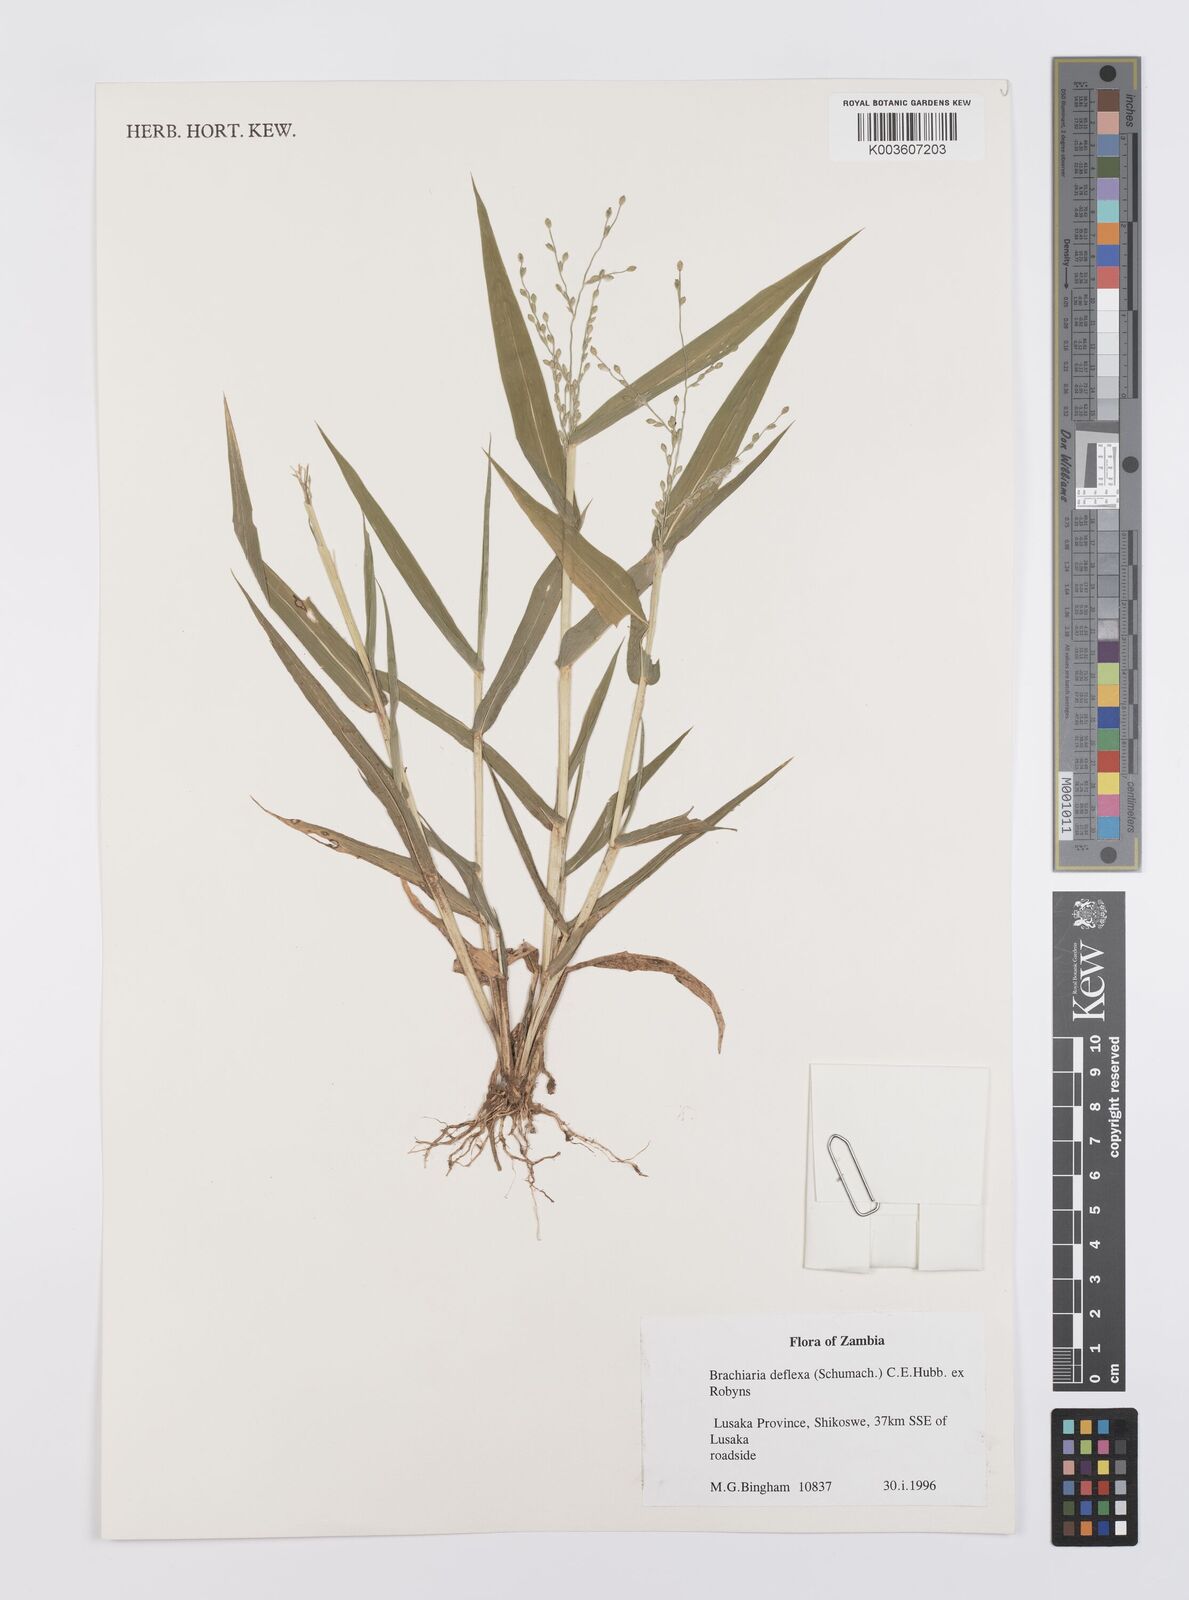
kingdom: Plantae
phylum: Tracheophyta
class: Liliopsida
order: Poales
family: Poaceae
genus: Urochloa
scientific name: Urochloa deflexa
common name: Guinea millet
